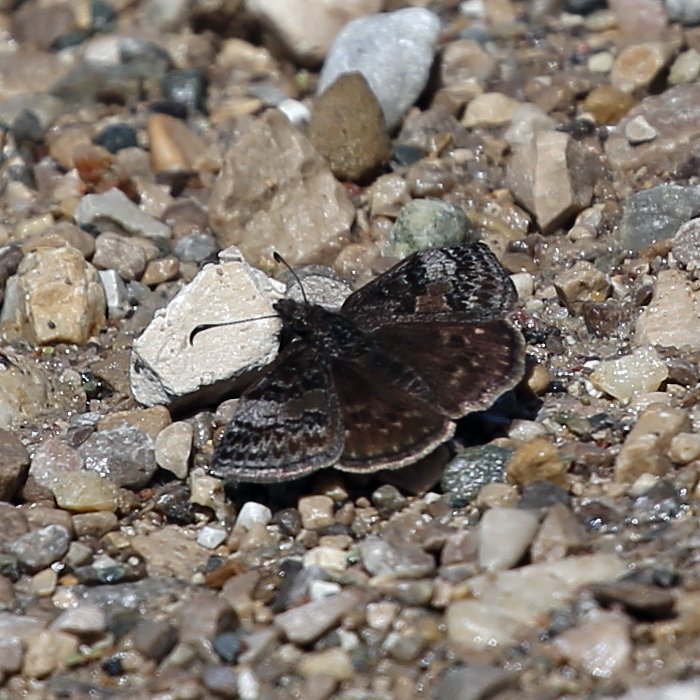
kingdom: Animalia
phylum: Arthropoda
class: Insecta
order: Lepidoptera
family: Hesperiidae
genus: Erynnis
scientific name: Erynnis icelus
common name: Dreamy Duskywing
